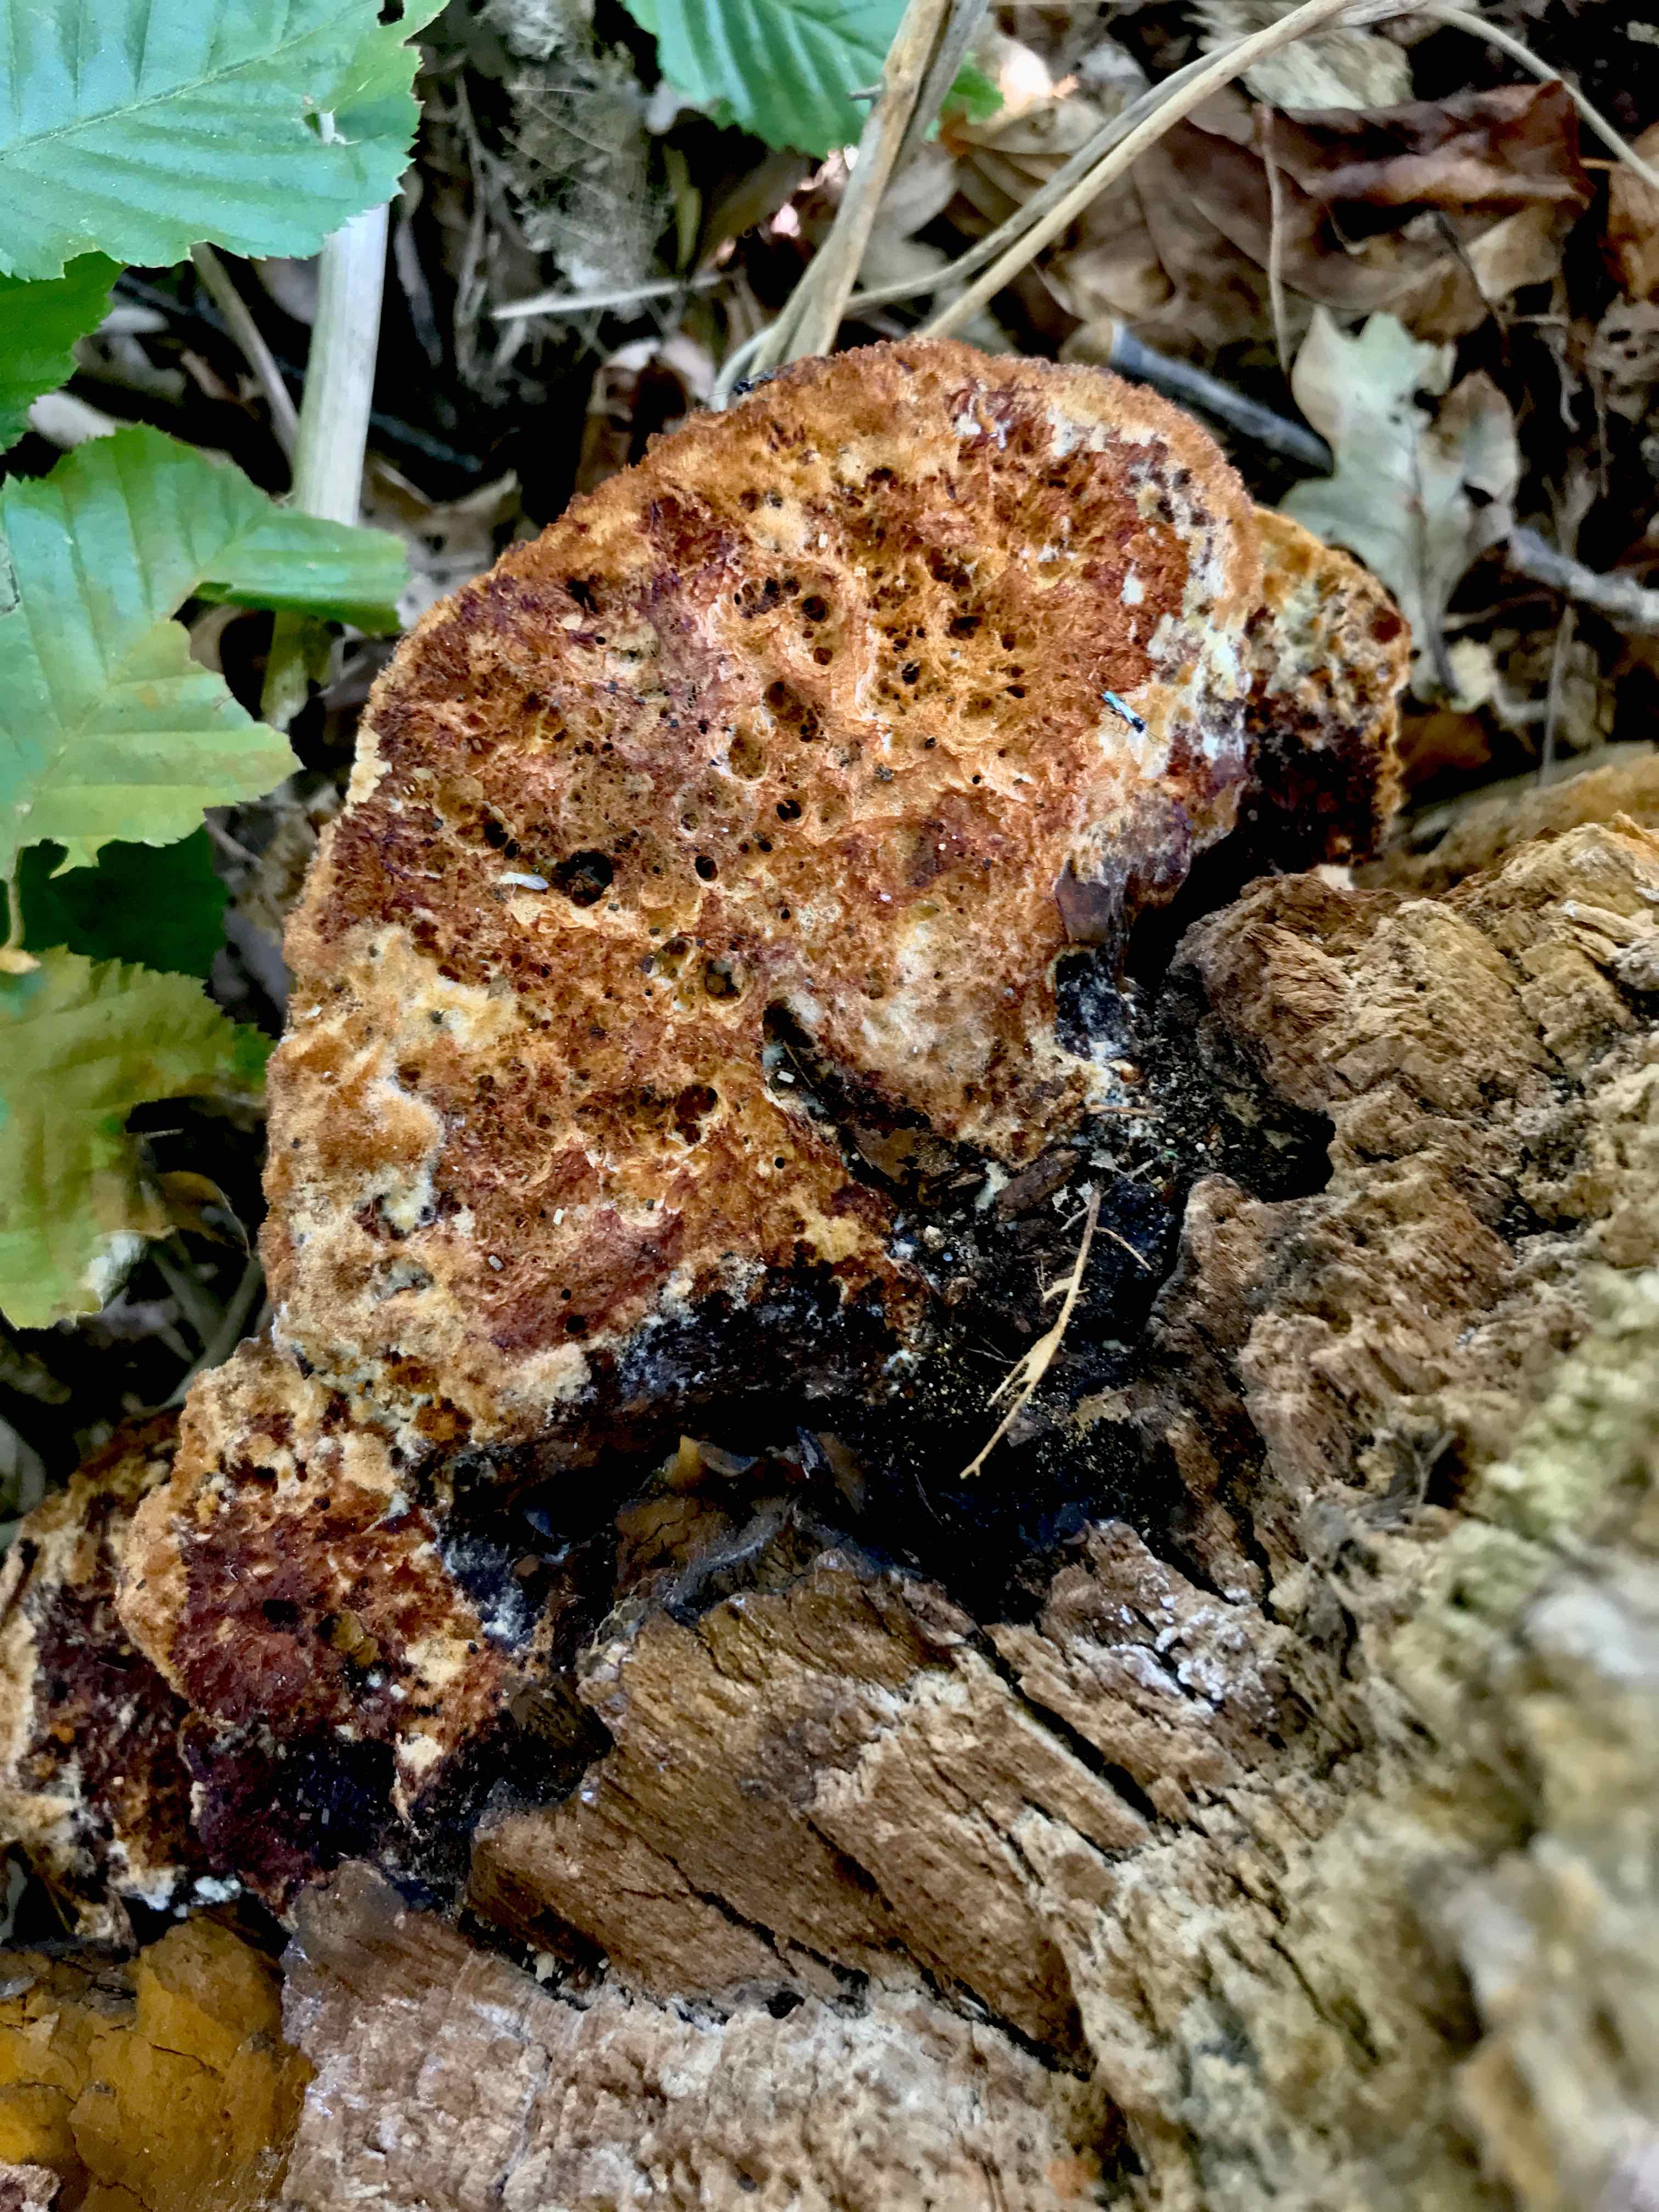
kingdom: Fungi
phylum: Basidiomycota
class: Agaricomycetes
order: Hymenochaetales
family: Hymenochaetaceae
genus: Inonotus
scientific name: Inonotus cuticularis
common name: kroghåret spejlporesvamp
